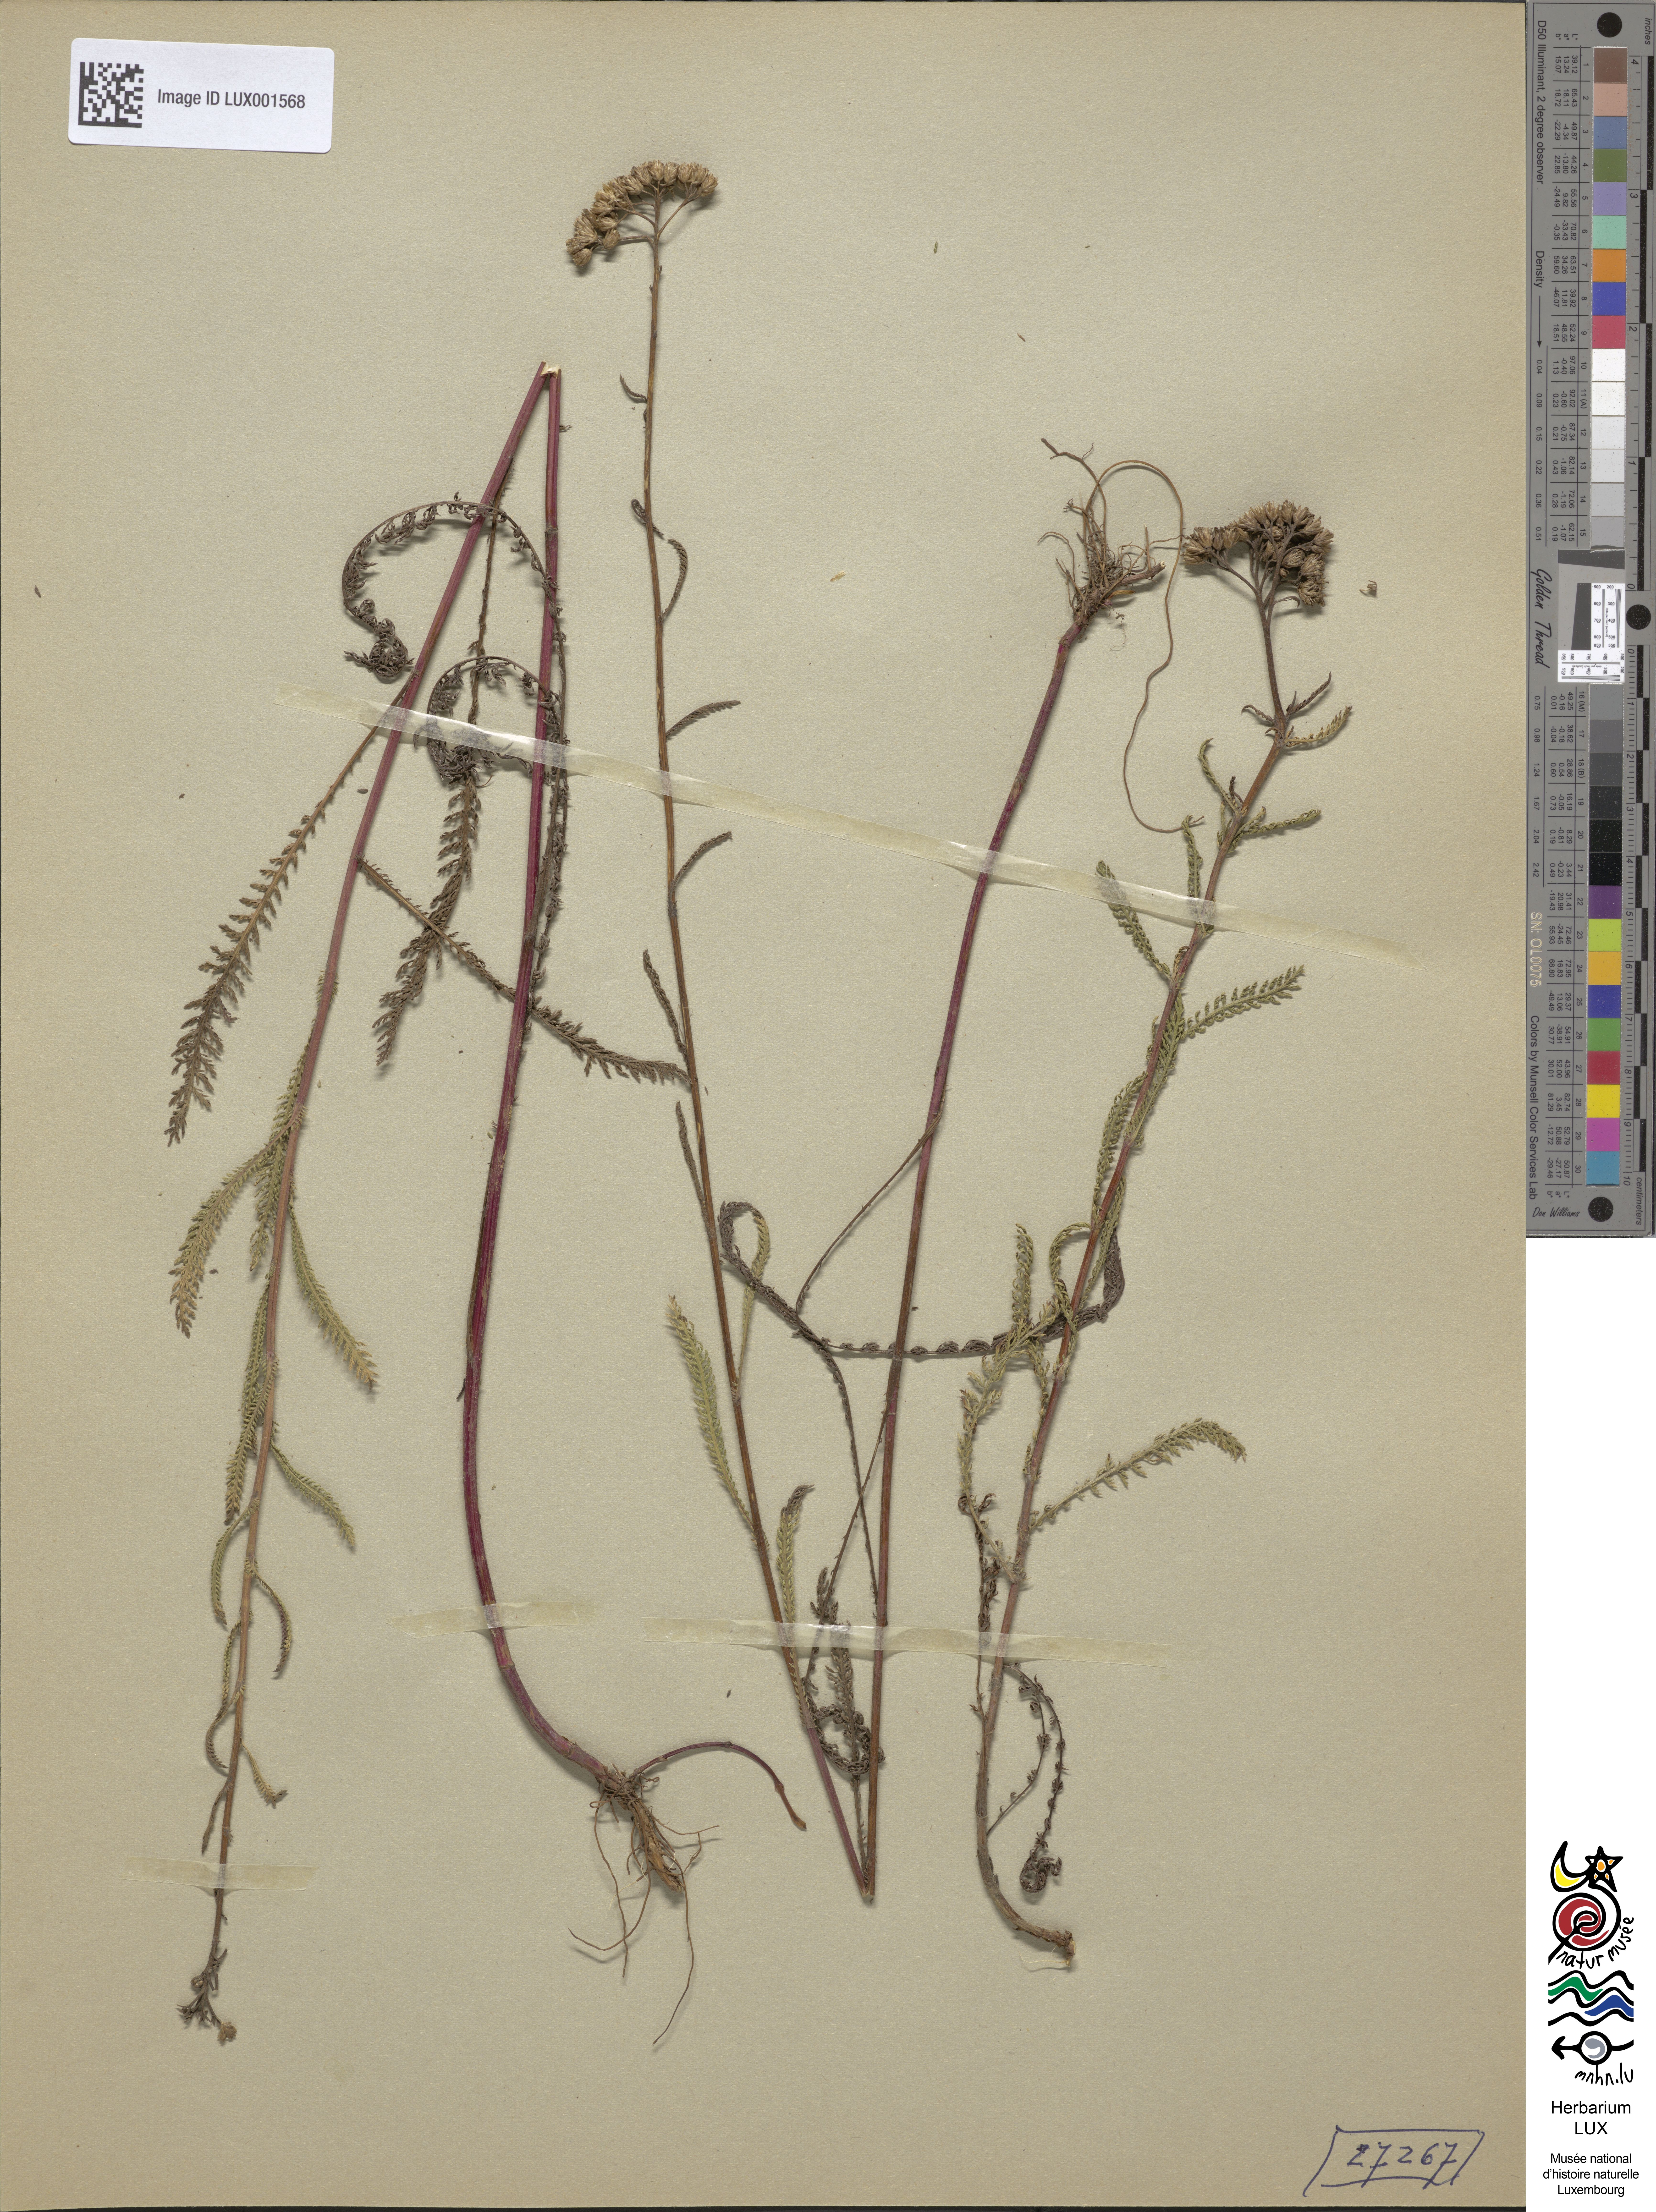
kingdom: Plantae
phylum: Tracheophyta
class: Magnoliopsida
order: Asterales
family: Asteraceae
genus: Achillea
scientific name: Achillea millefolium
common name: Yarrow
